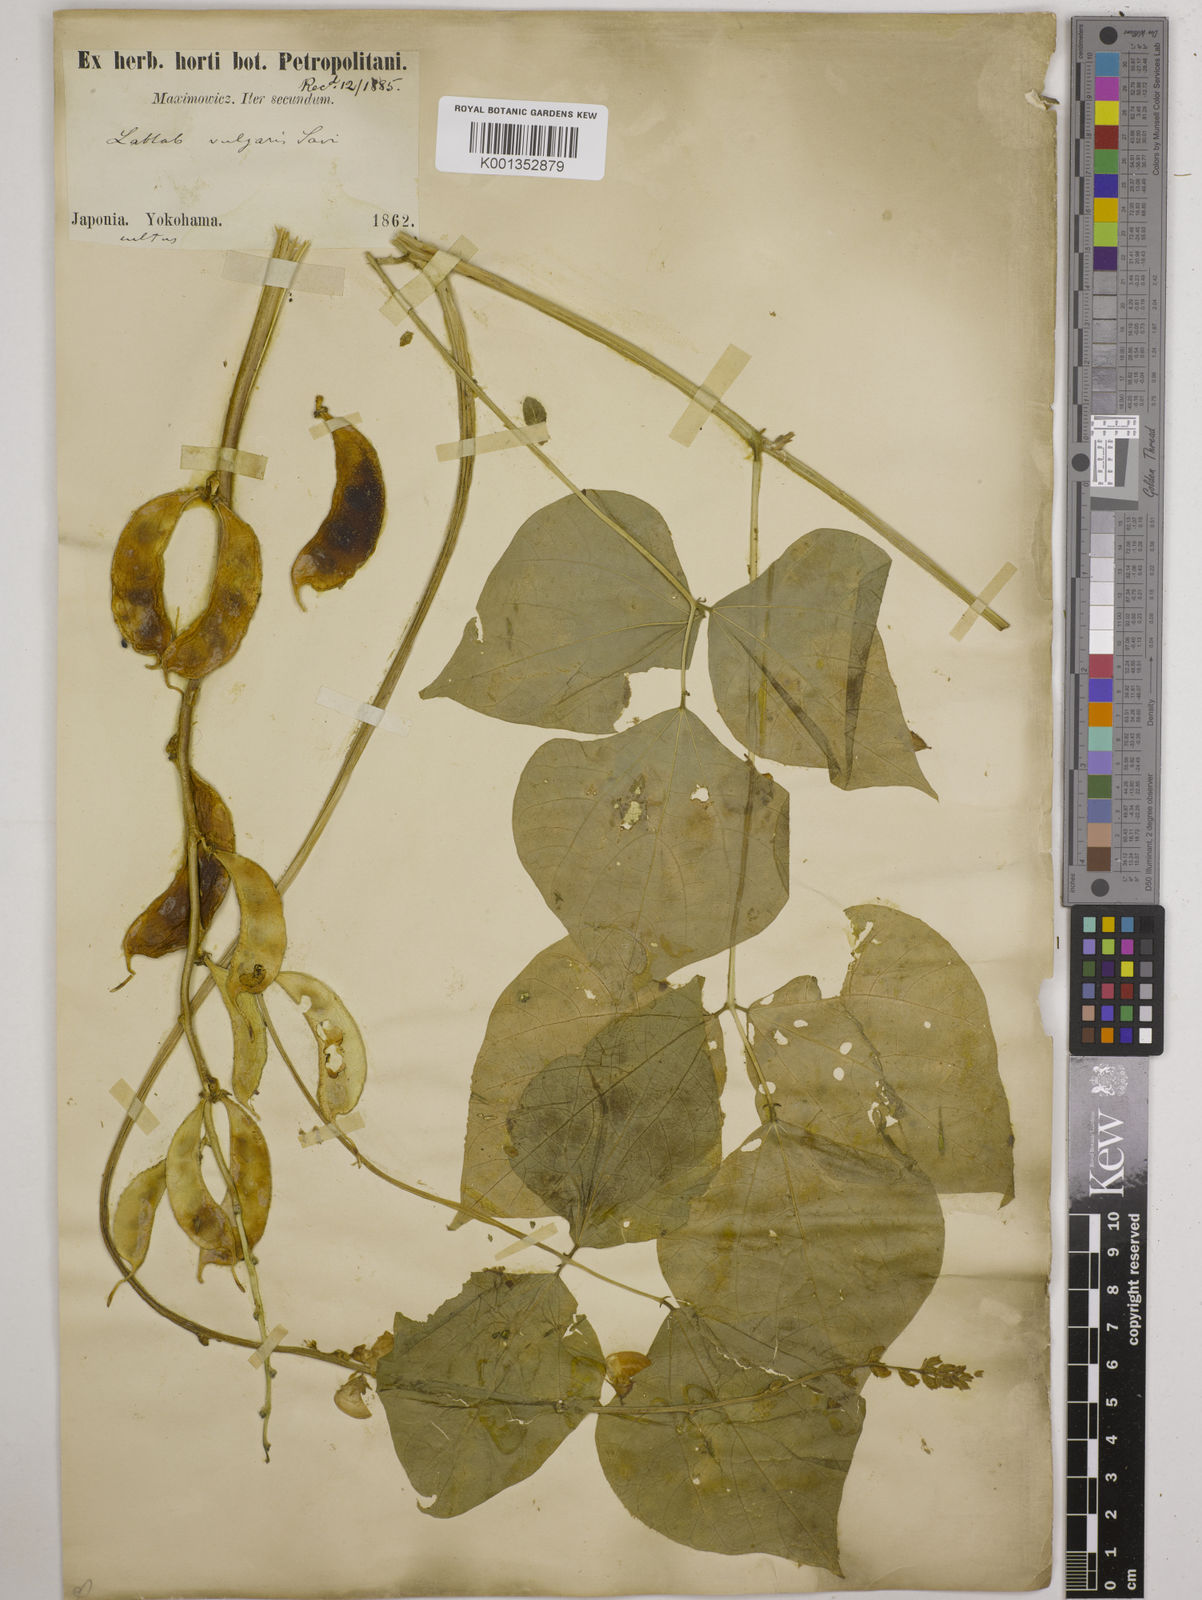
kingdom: Plantae
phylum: Tracheophyta
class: Magnoliopsida
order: Fabales
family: Fabaceae
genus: Lablab
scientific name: Lablab purpureus
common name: Lablab-bean
